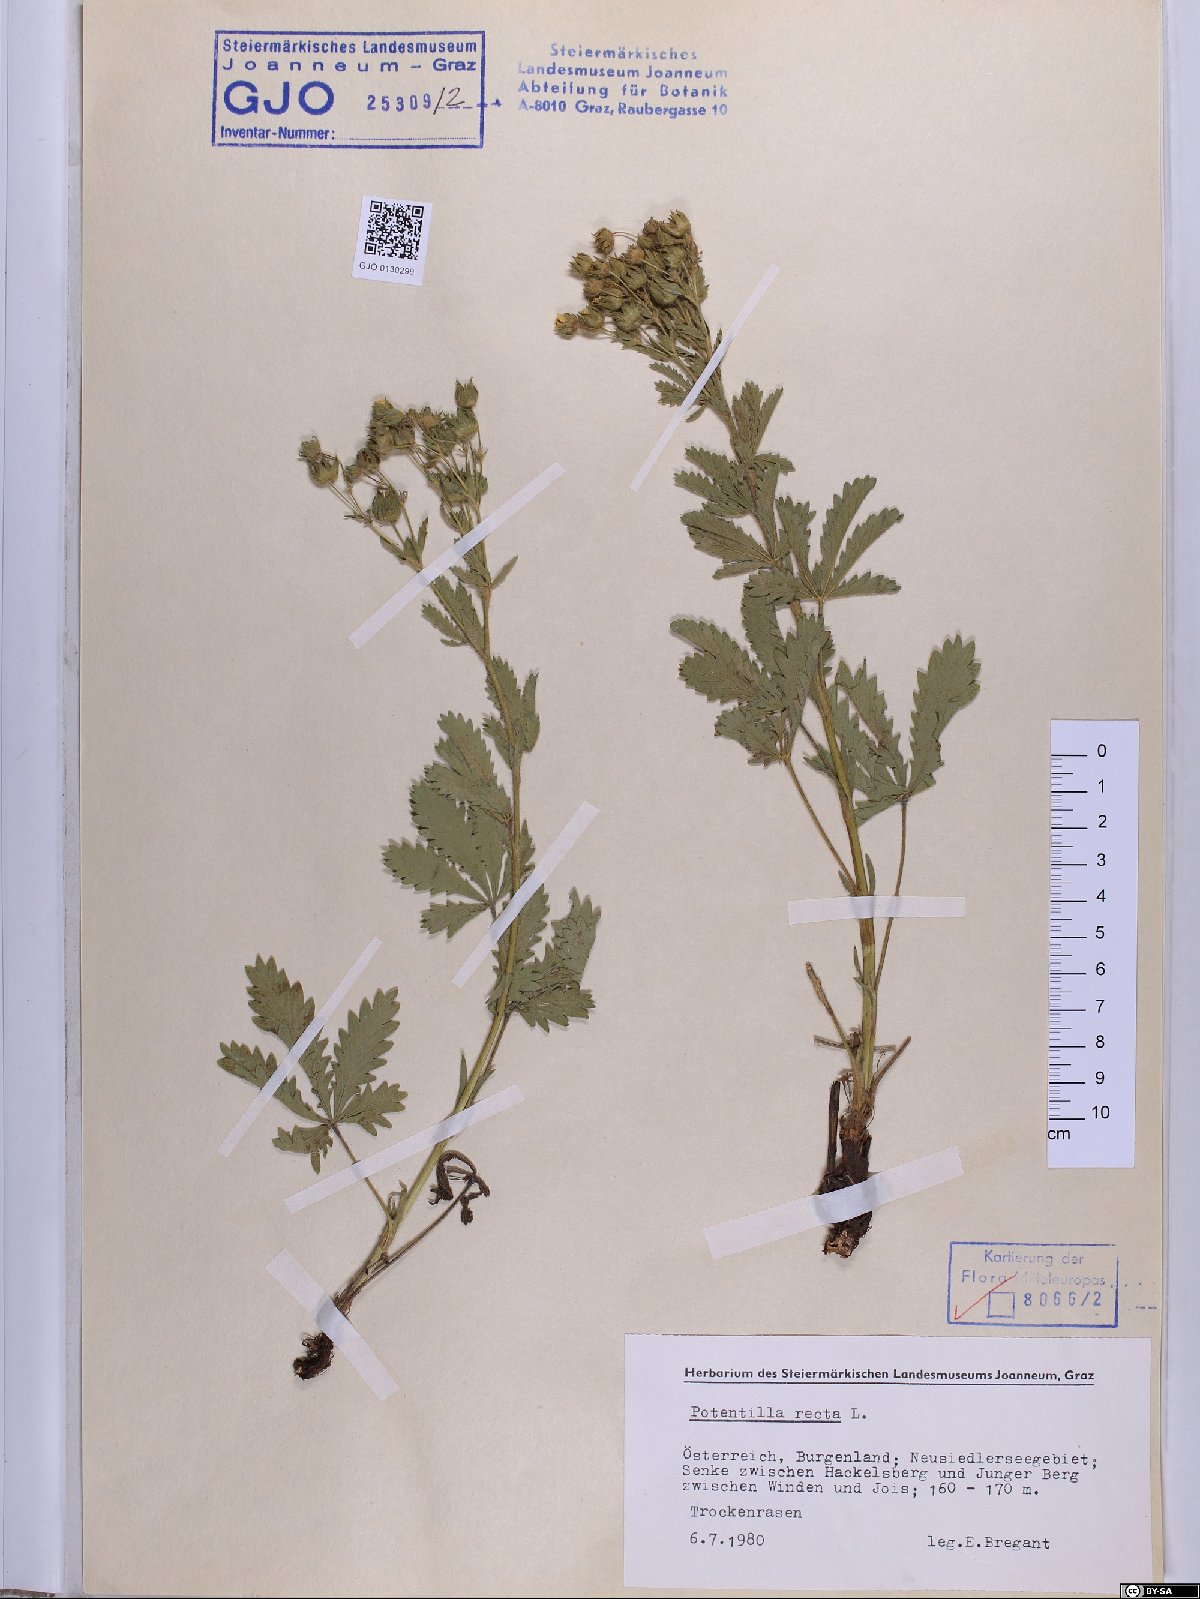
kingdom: Plantae
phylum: Tracheophyta
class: Magnoliopsida
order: Rosales
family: Rosaceae
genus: Potentilla
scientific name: Potentilla recta
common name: Sulphur cinquefoil
